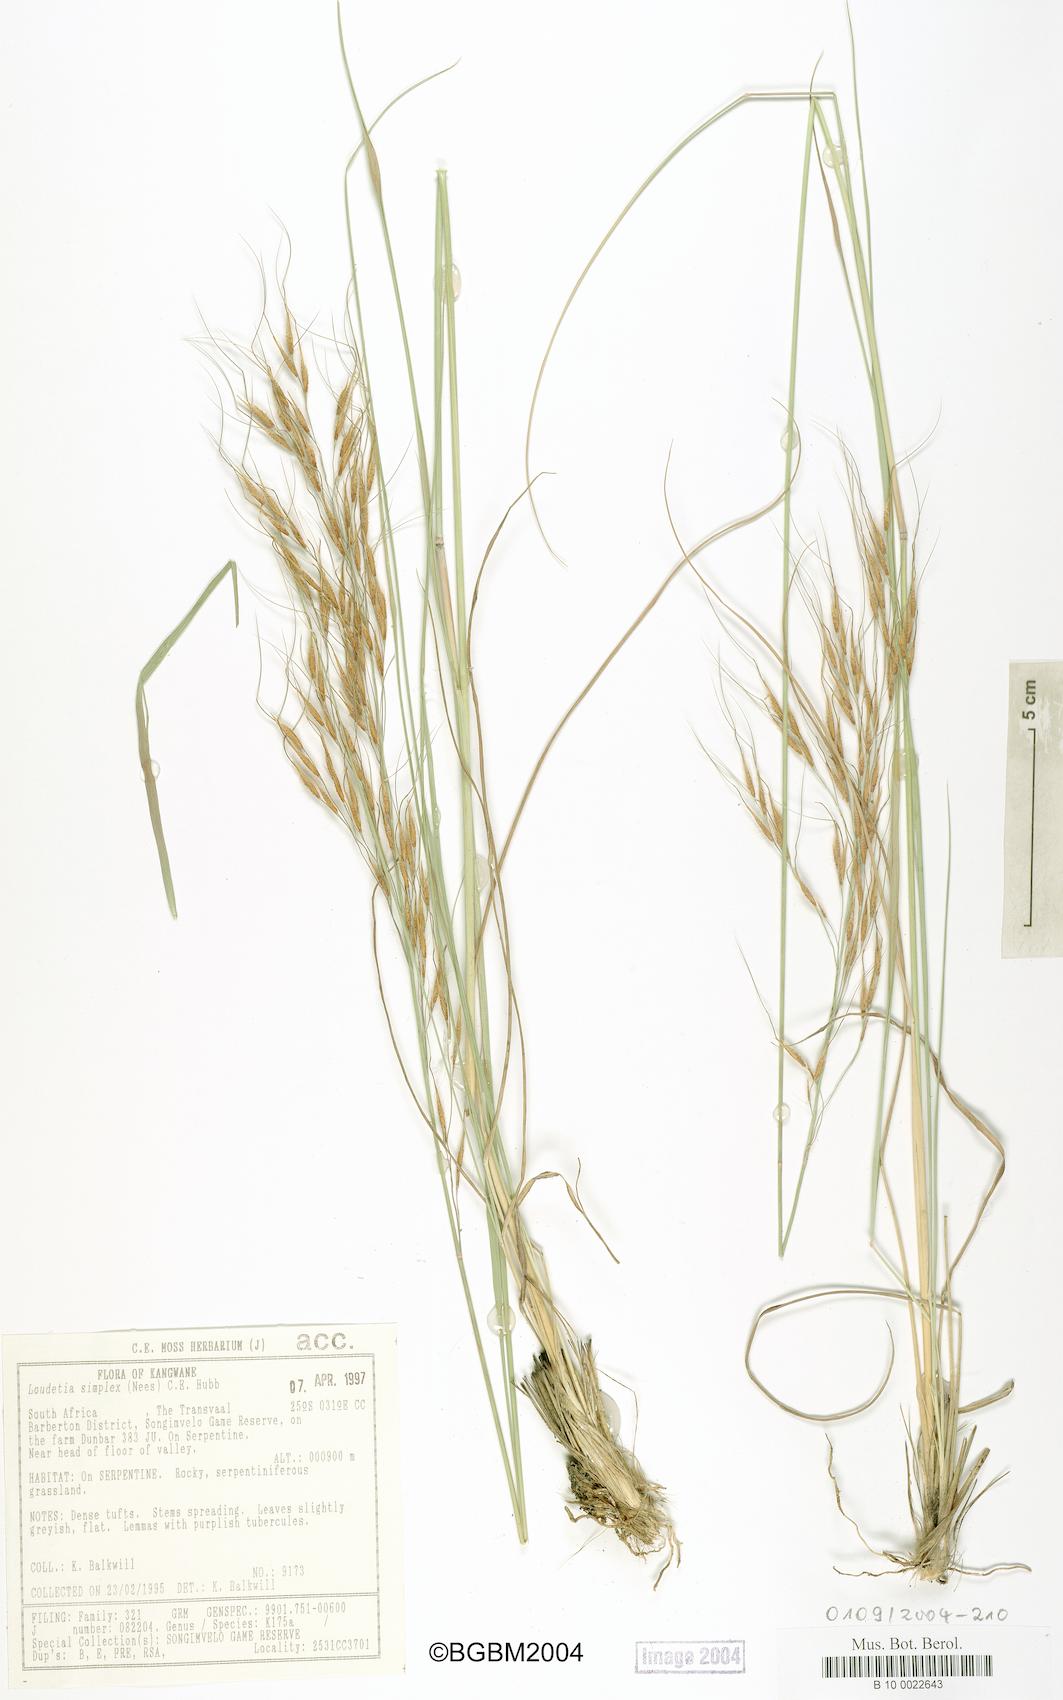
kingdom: Plantae
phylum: Tracheophyta
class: Liliopsida
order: Poales
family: Poaceae
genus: Loudetia
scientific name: Loudetia simplex
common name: Common russet grass
